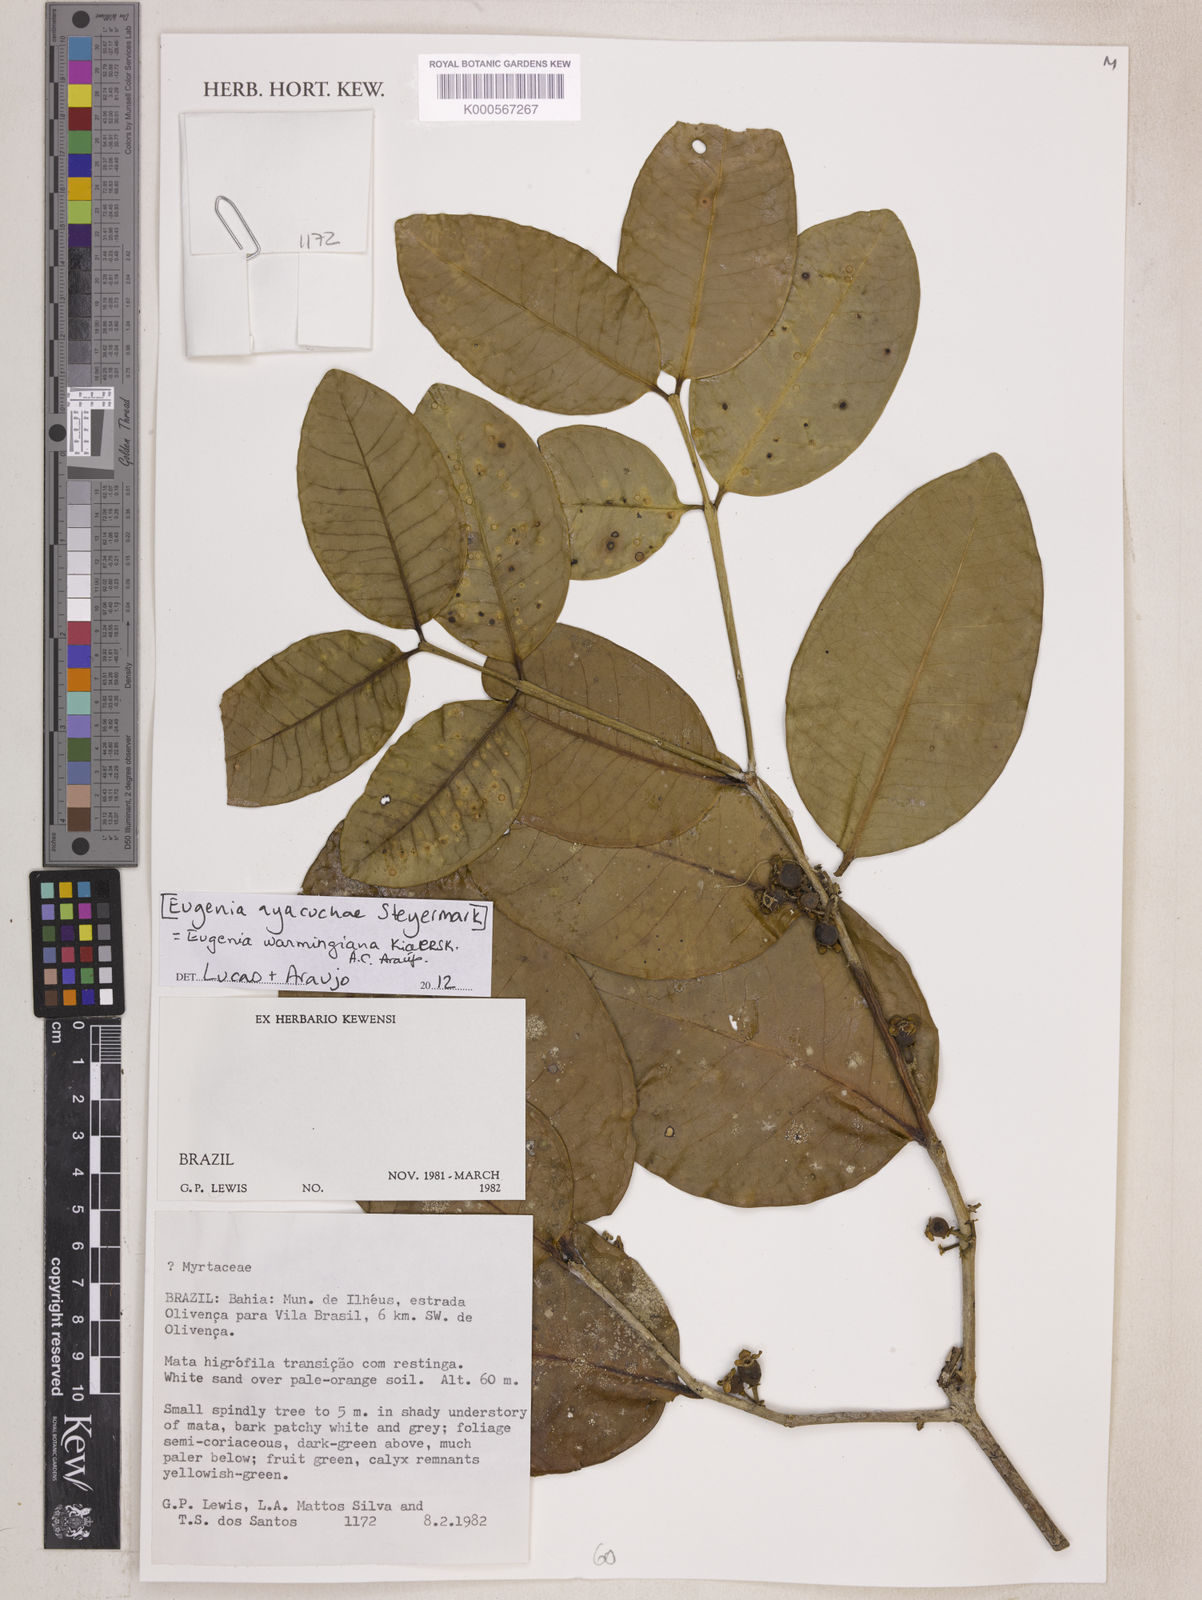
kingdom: Plantae
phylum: Tracheophyta
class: Magnoliopsida
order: Myrtales
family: Myrtaceae
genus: Eugenia
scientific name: Eugenia warmingiana
